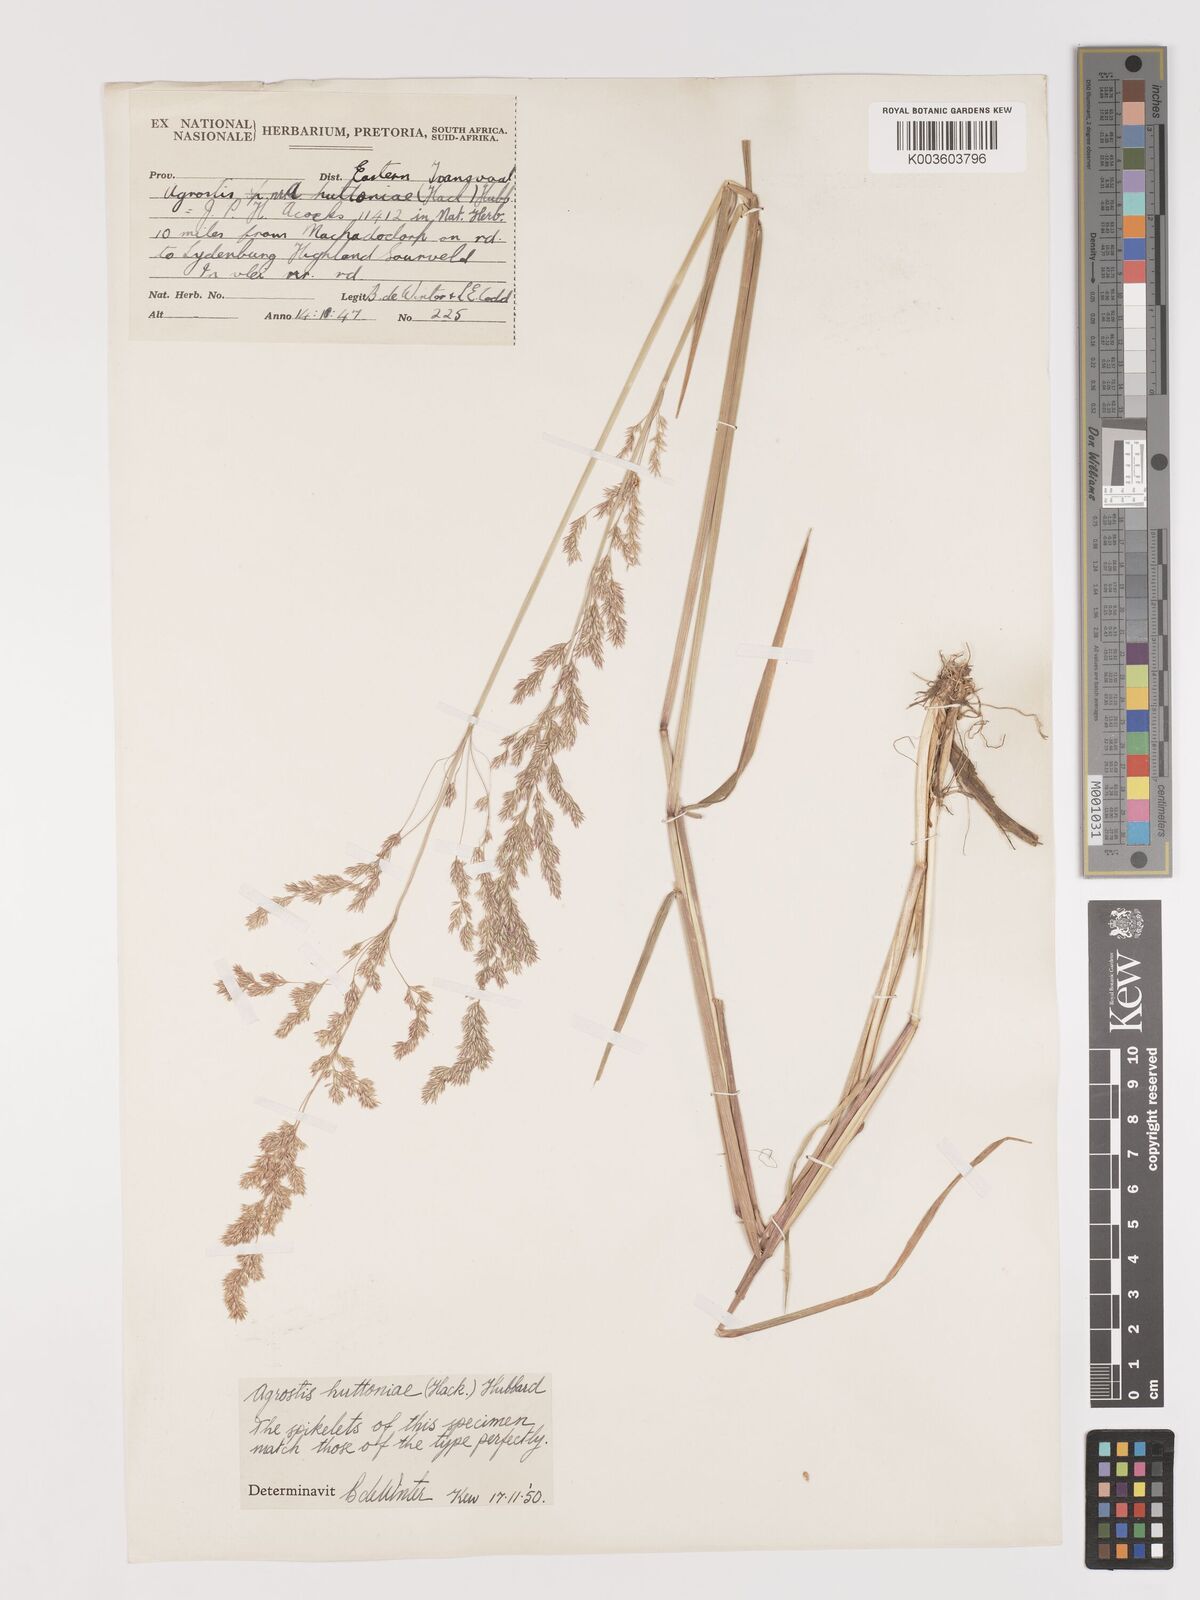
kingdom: Plantae
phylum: Tracheophyta
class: Liliopsida
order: Poales
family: Poaceae
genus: Lachnagrostis
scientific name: Lachnagrostis lachnantha
